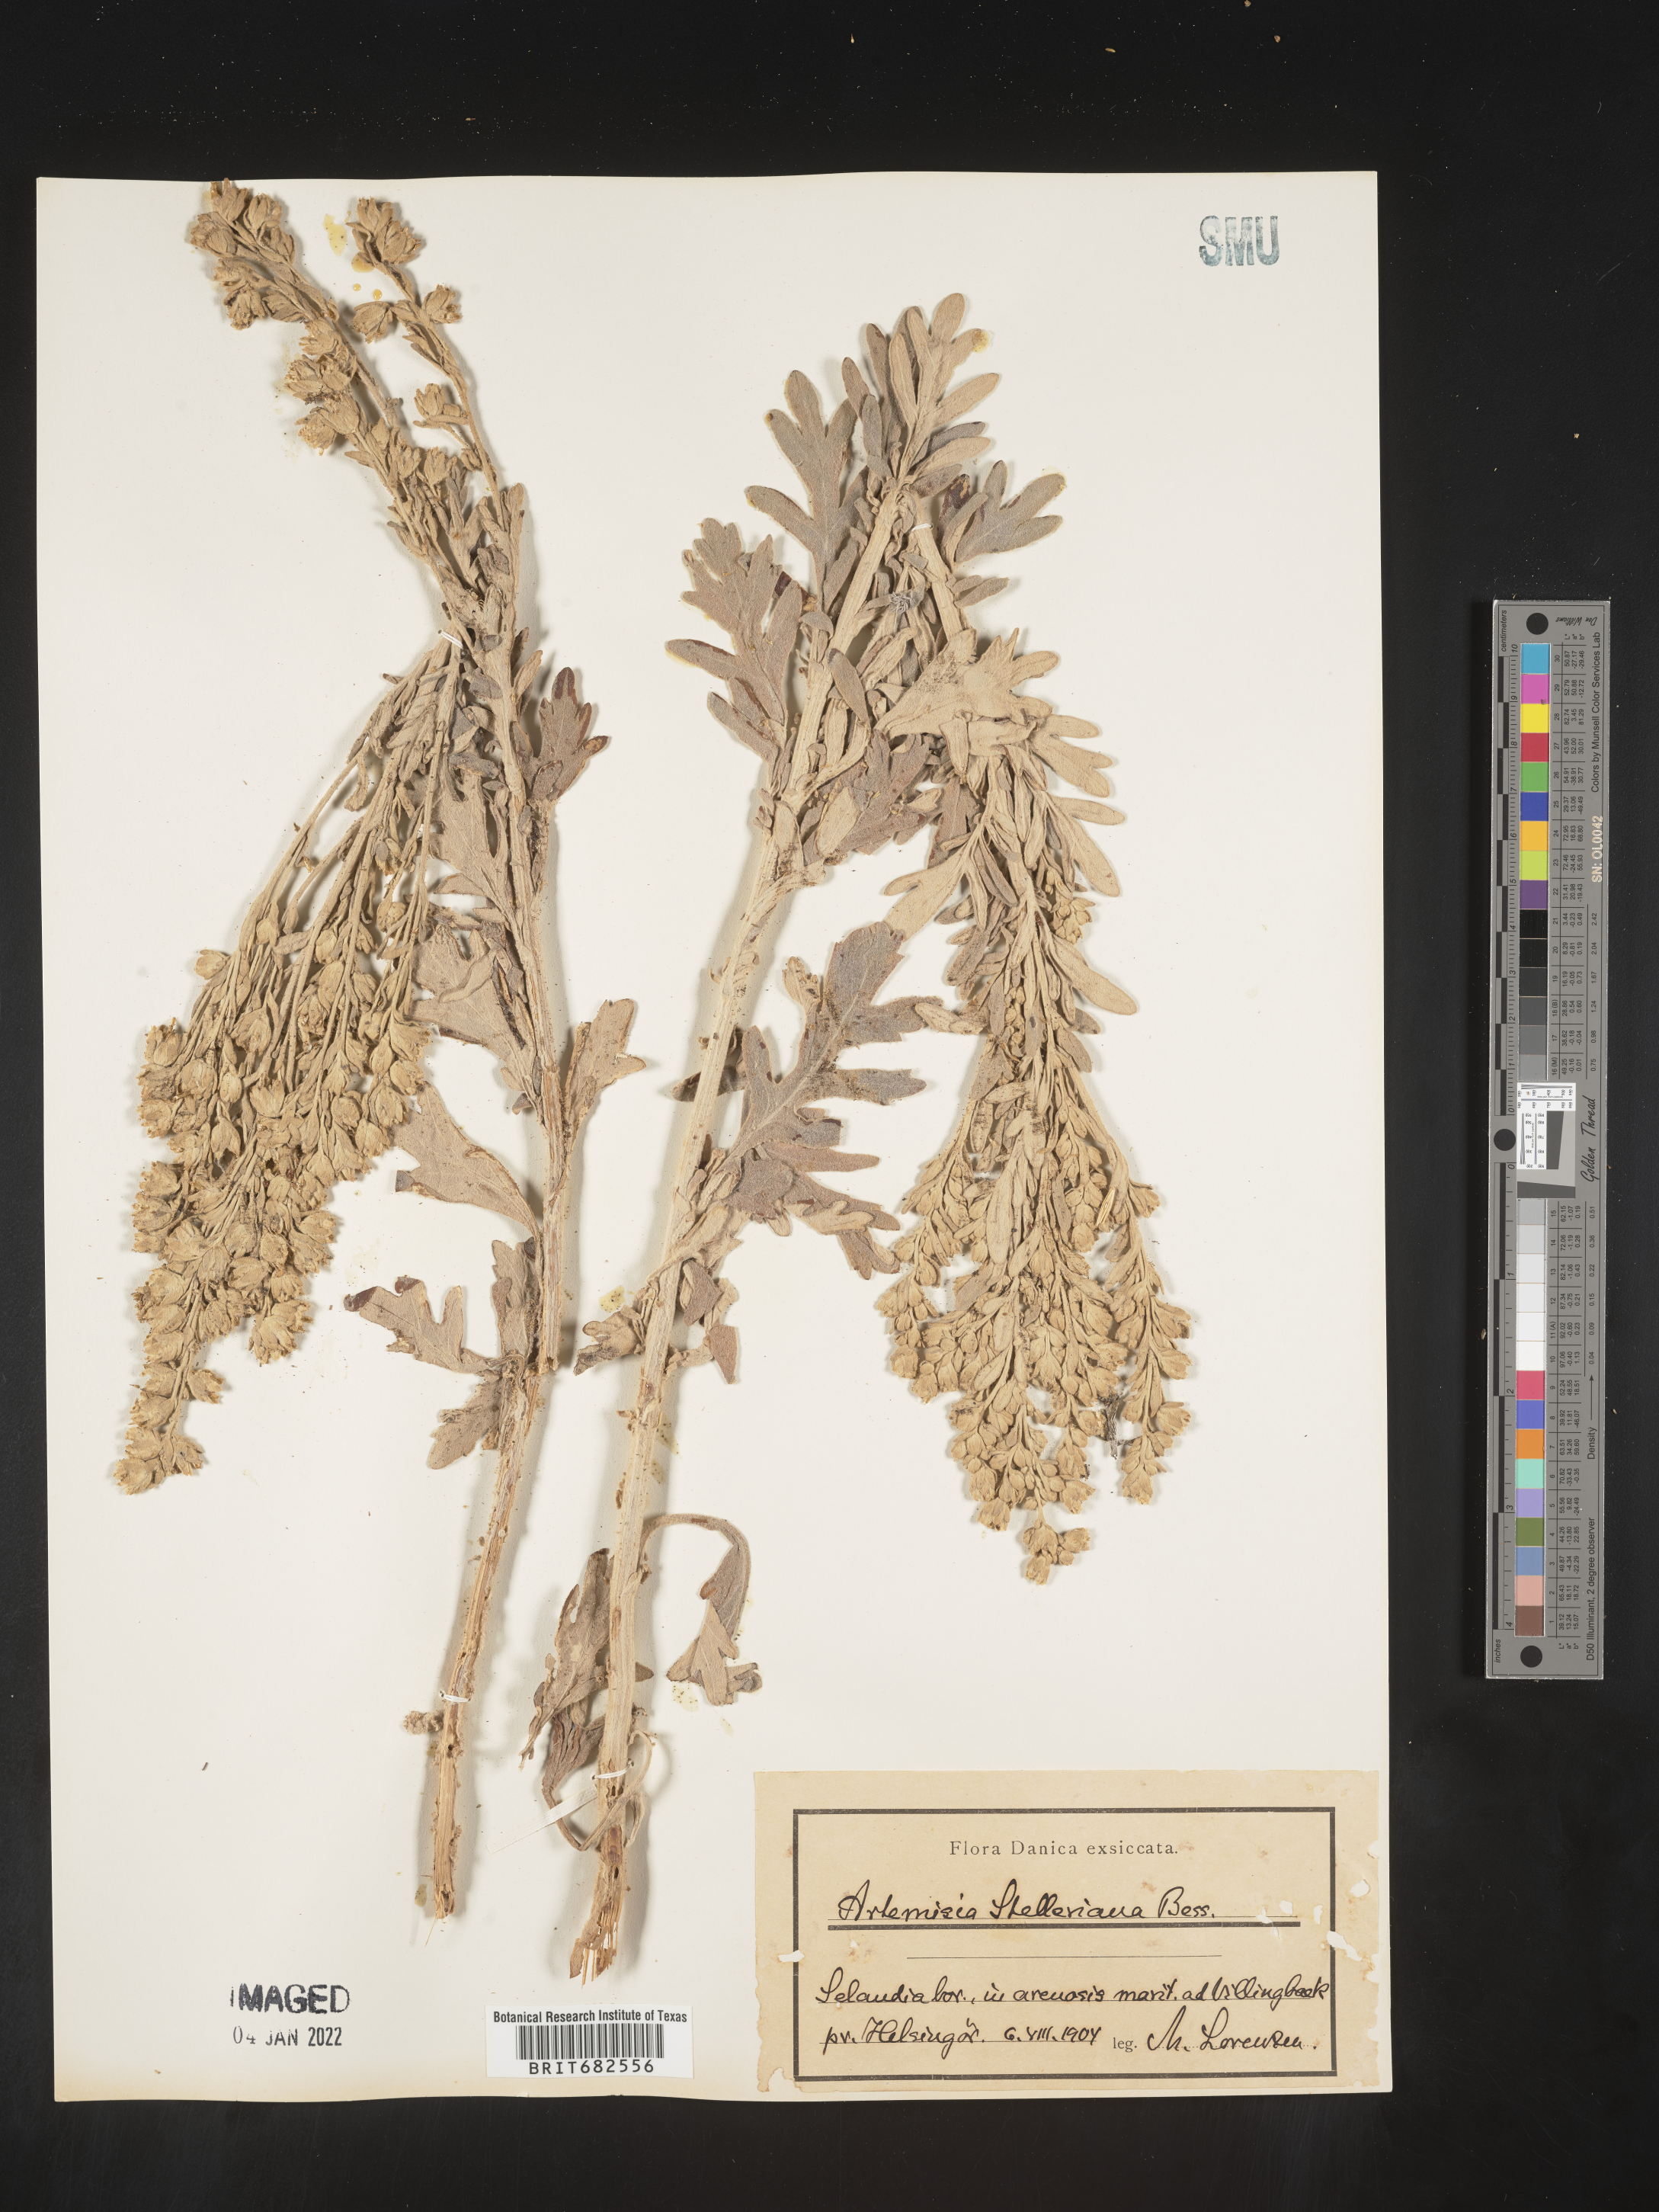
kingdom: Plantae
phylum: Tracheophyta
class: Magnoliopsida
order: Asterales
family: Asteraceae
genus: Artemisia
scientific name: Artemisia
